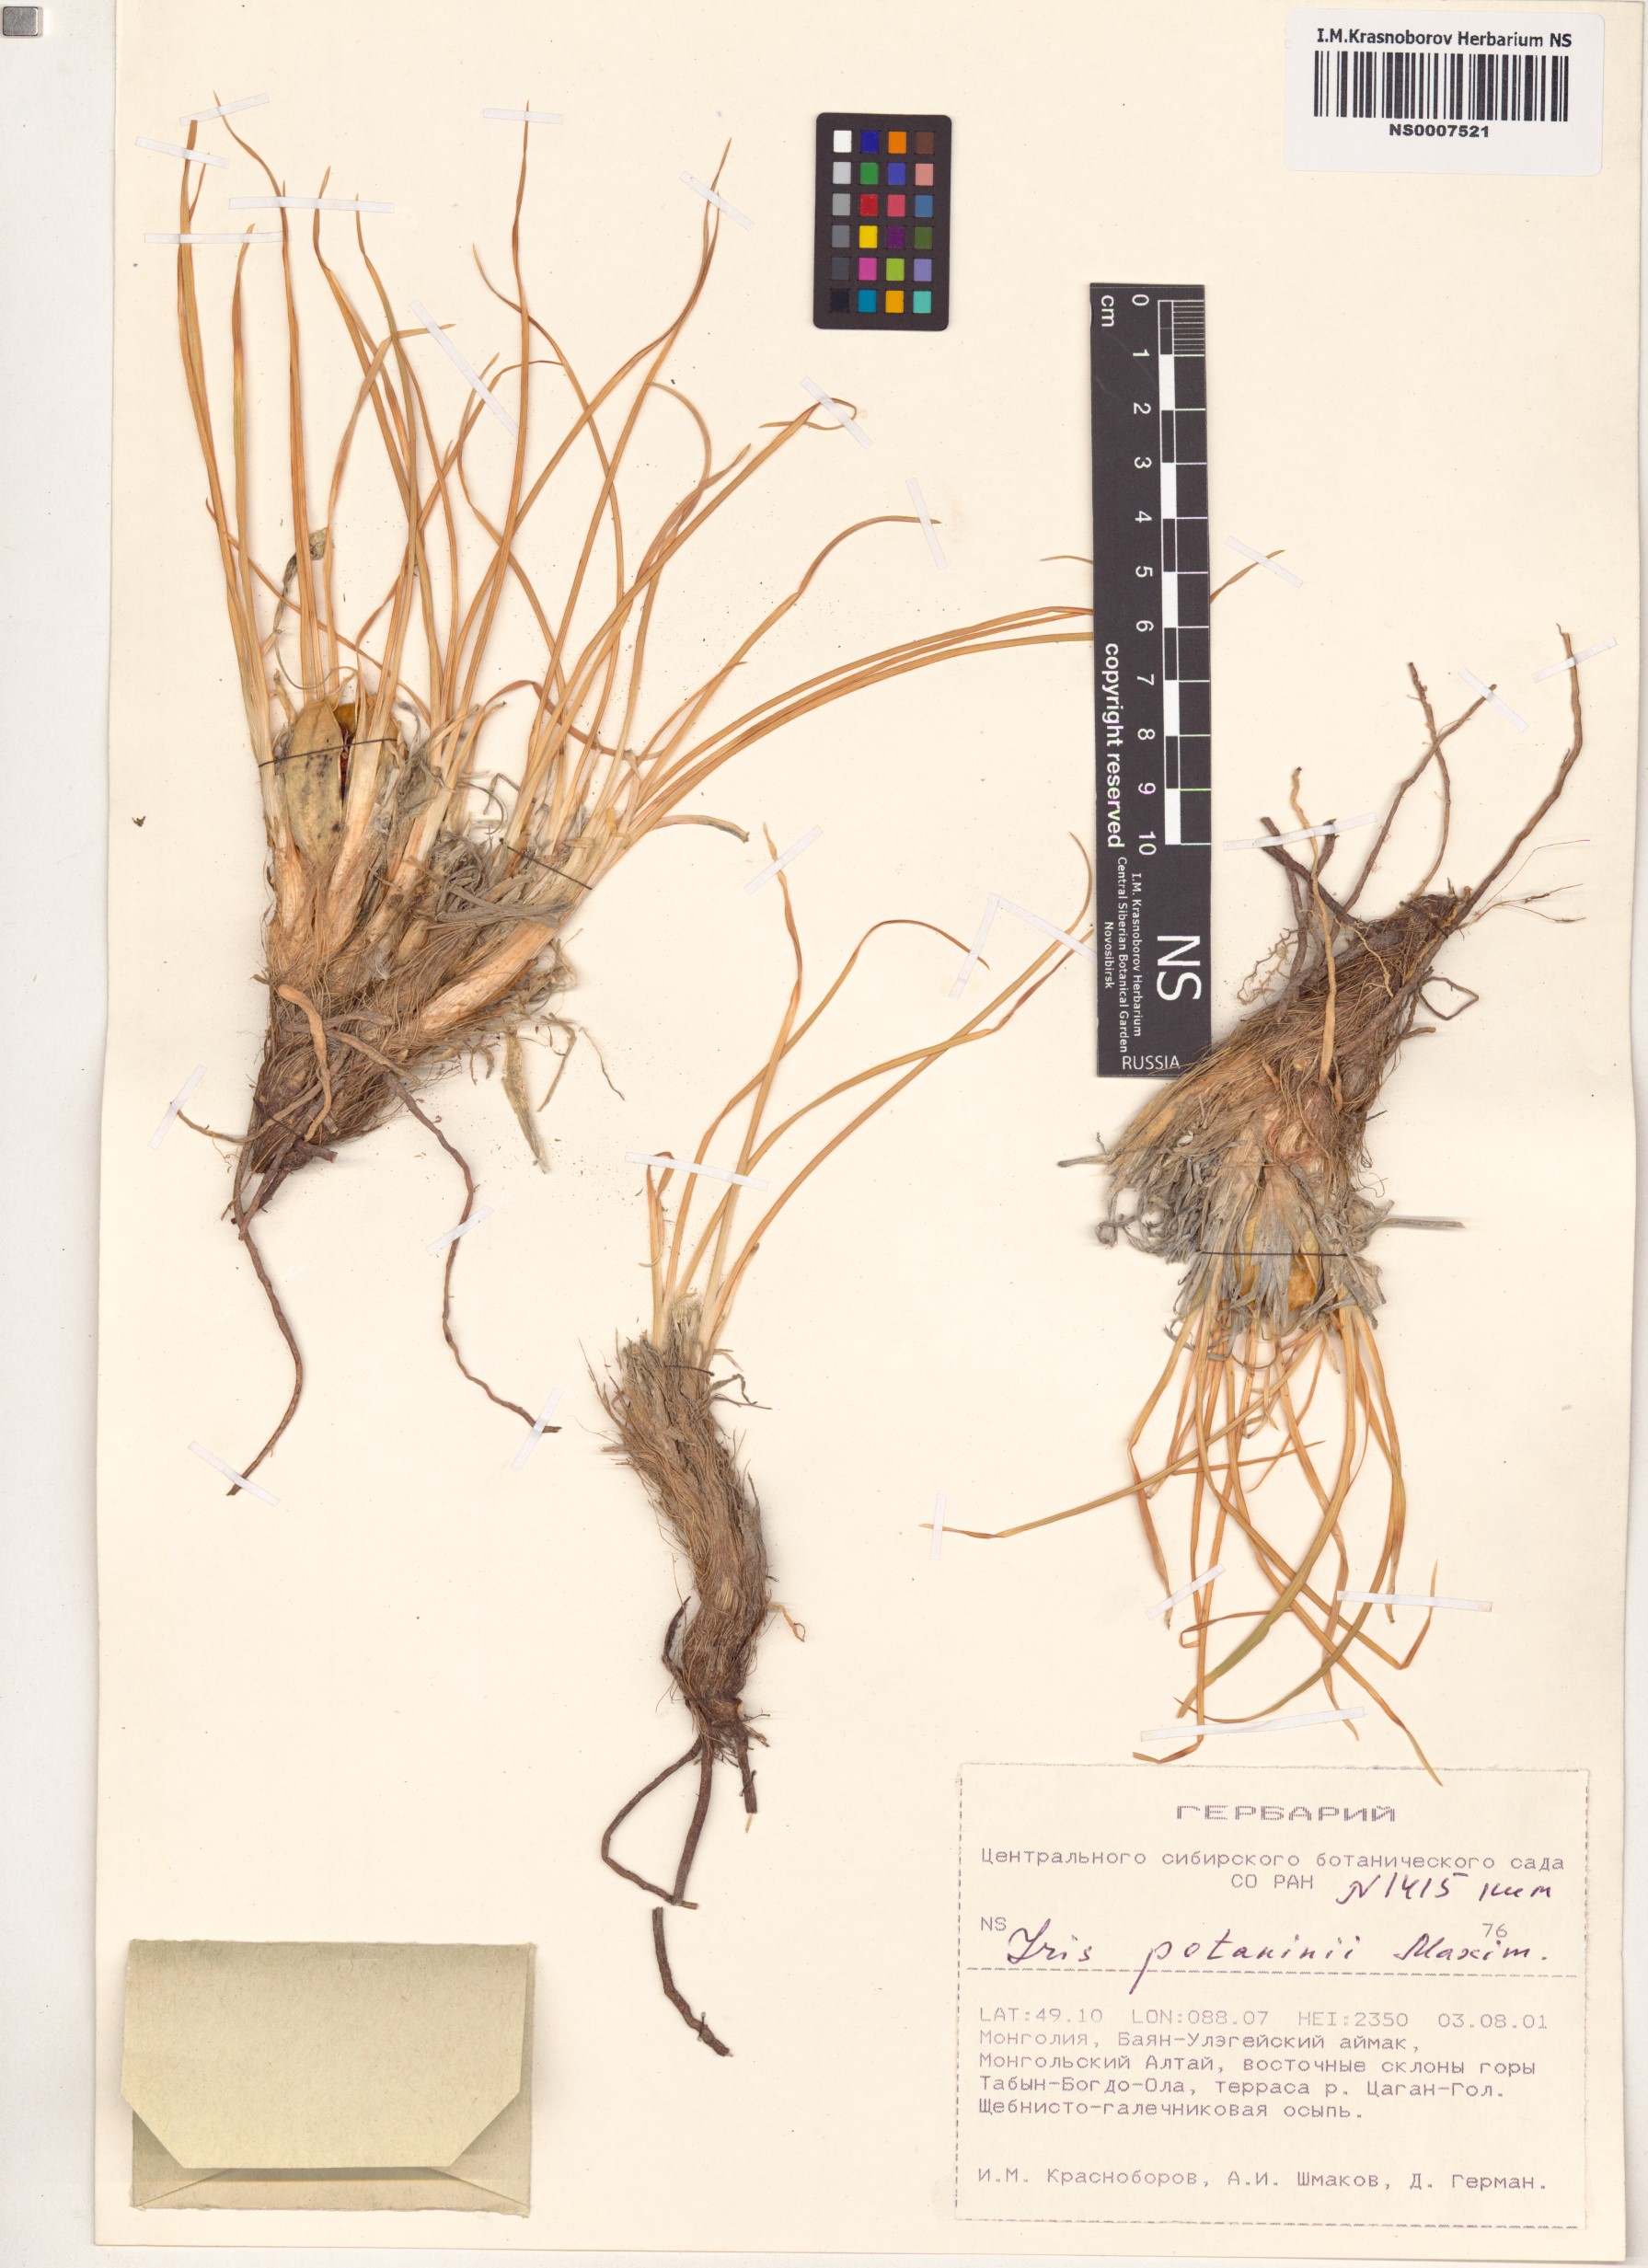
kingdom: Plantae
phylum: Tracheophyta
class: Liliopsida
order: Asparagales
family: Iridaceae
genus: Iris
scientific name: Iris potaninii
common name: Curl-sheath iris
